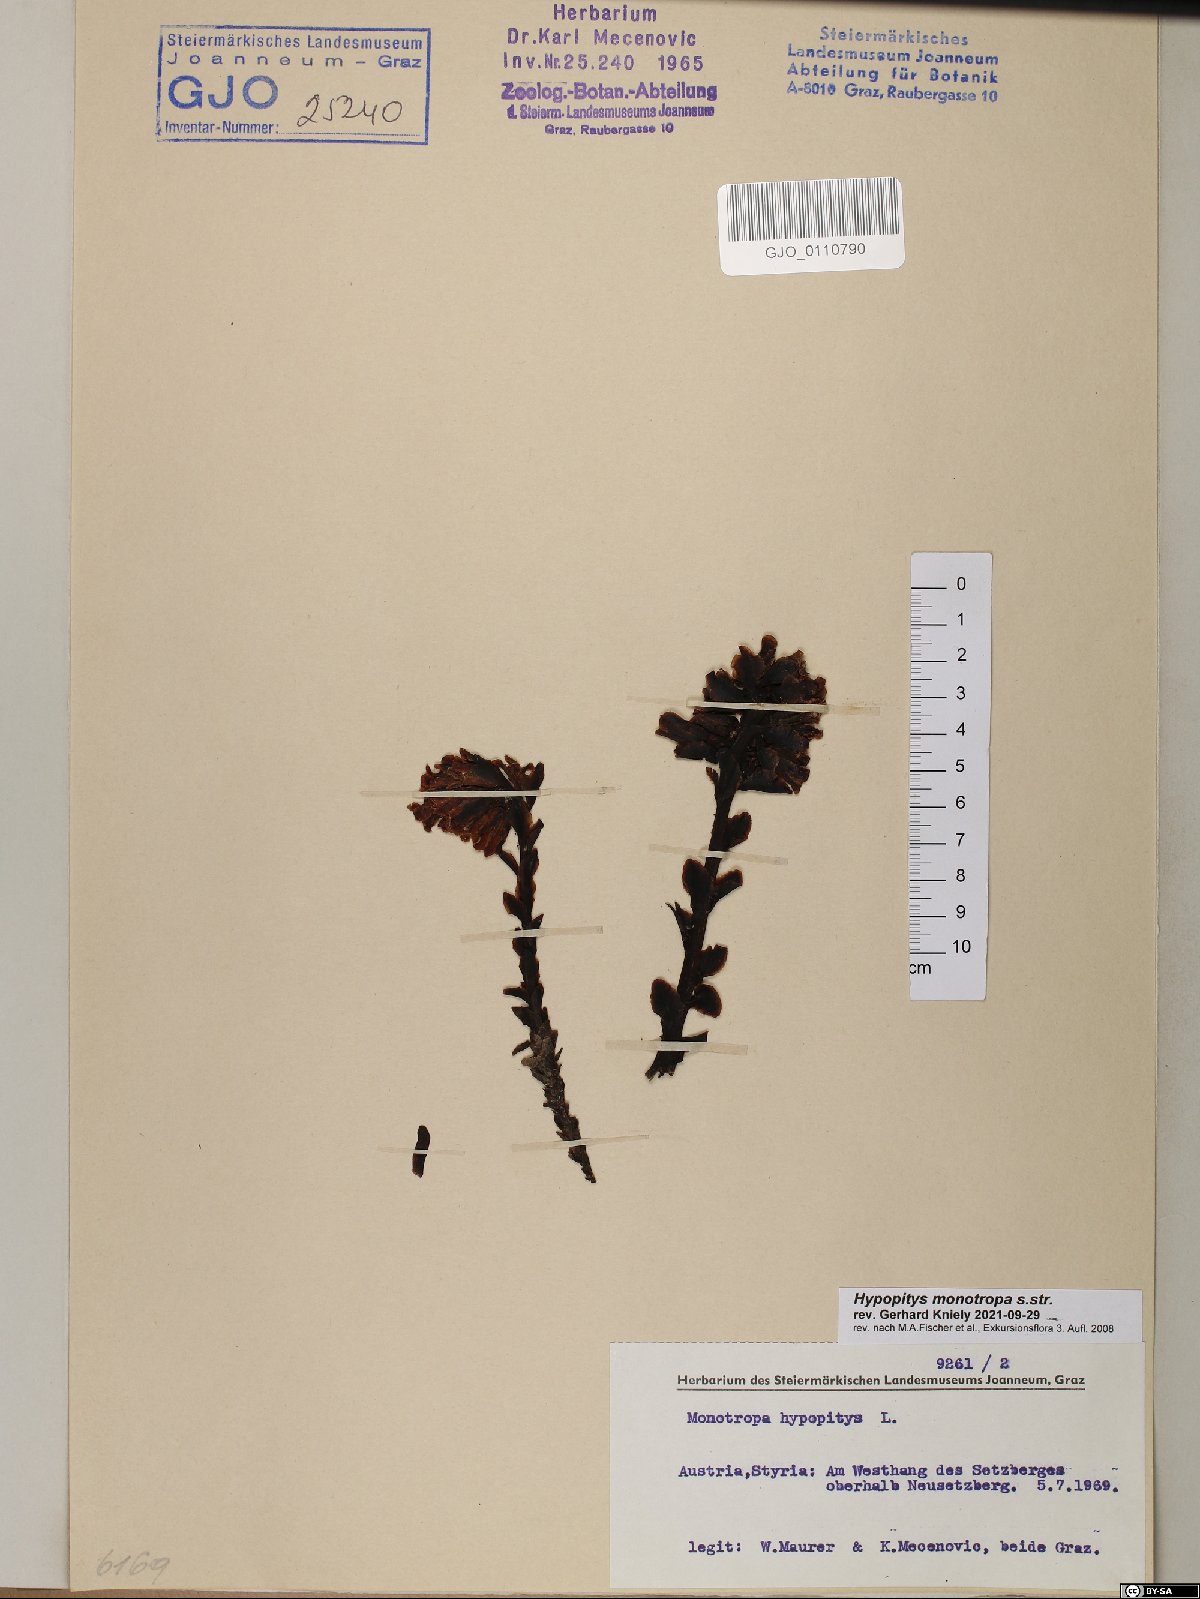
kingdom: Plantae
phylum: Tracheophyta
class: Magnoliopsida
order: Ericales
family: Ericaceae
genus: Hypopitys
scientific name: Hypopitys monotropa
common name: Yellow bird's-nest
